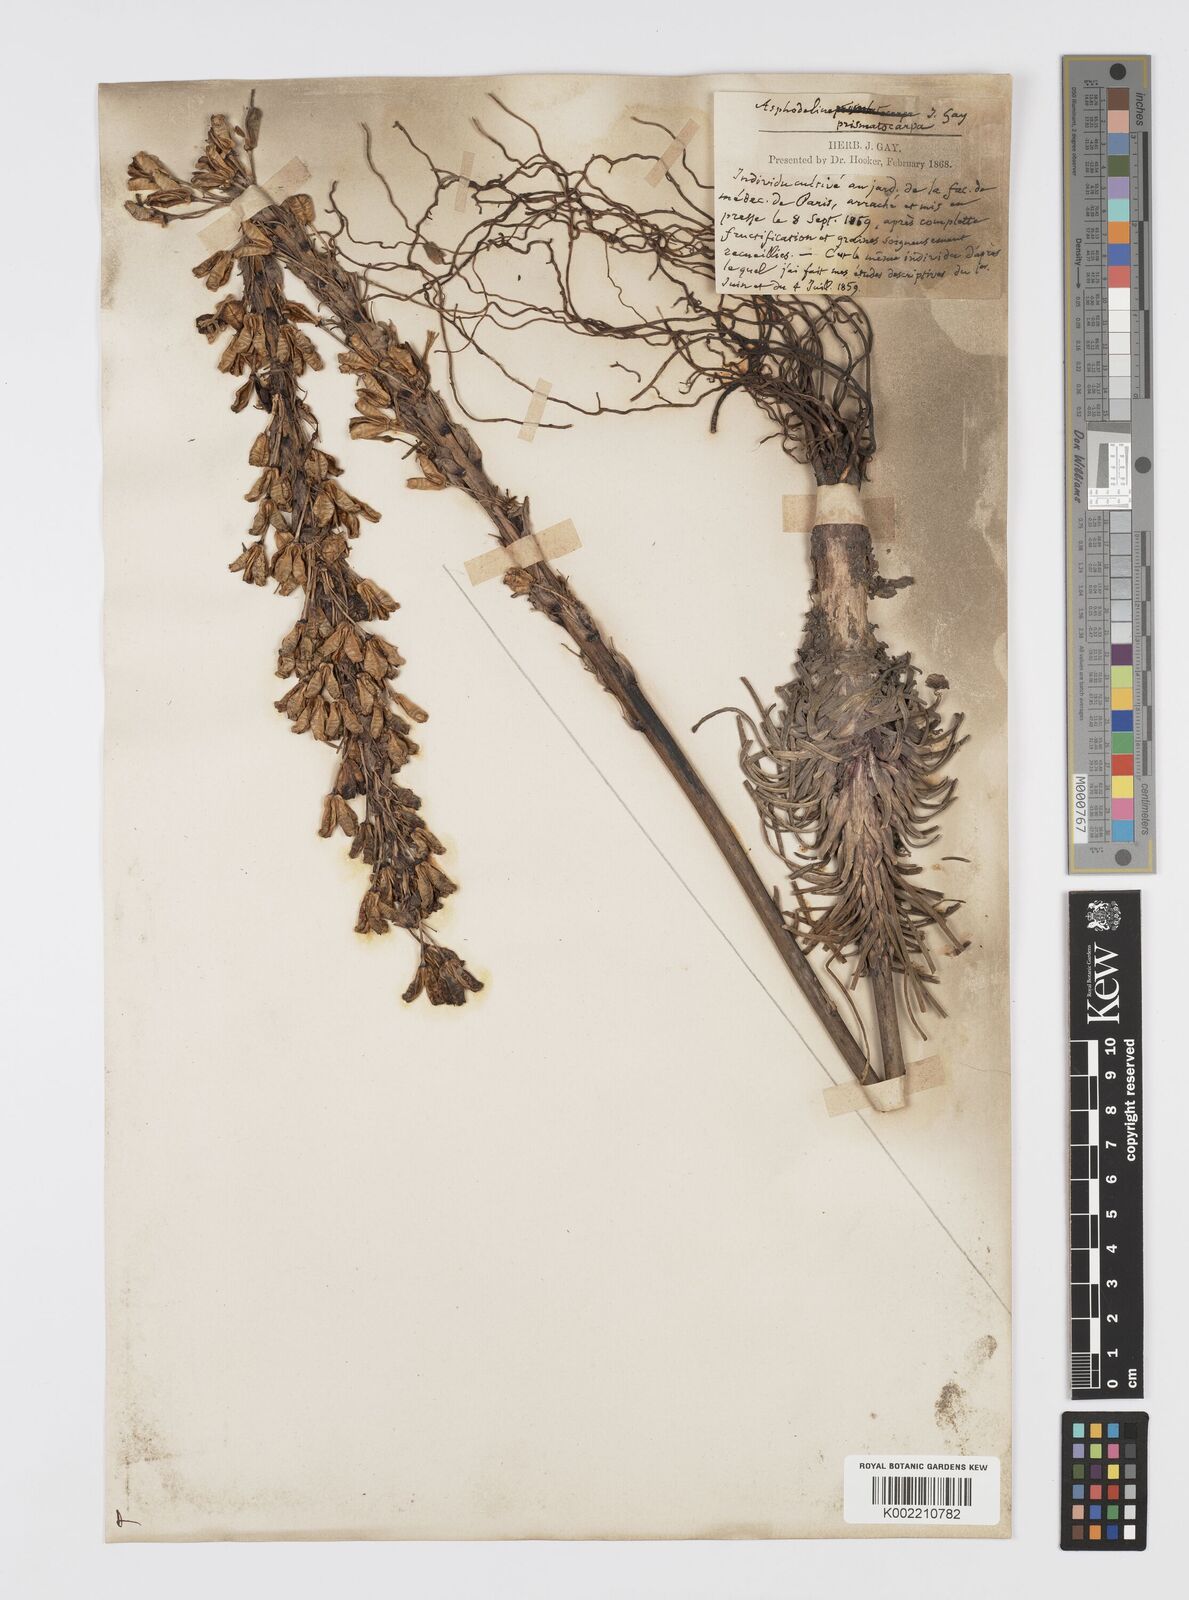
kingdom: Plantae
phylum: Tracheophyta
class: Liliopsida
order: Asparagales
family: Asphodelaceae
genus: Asphodeline
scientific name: Asphodeline prismatocarpa
